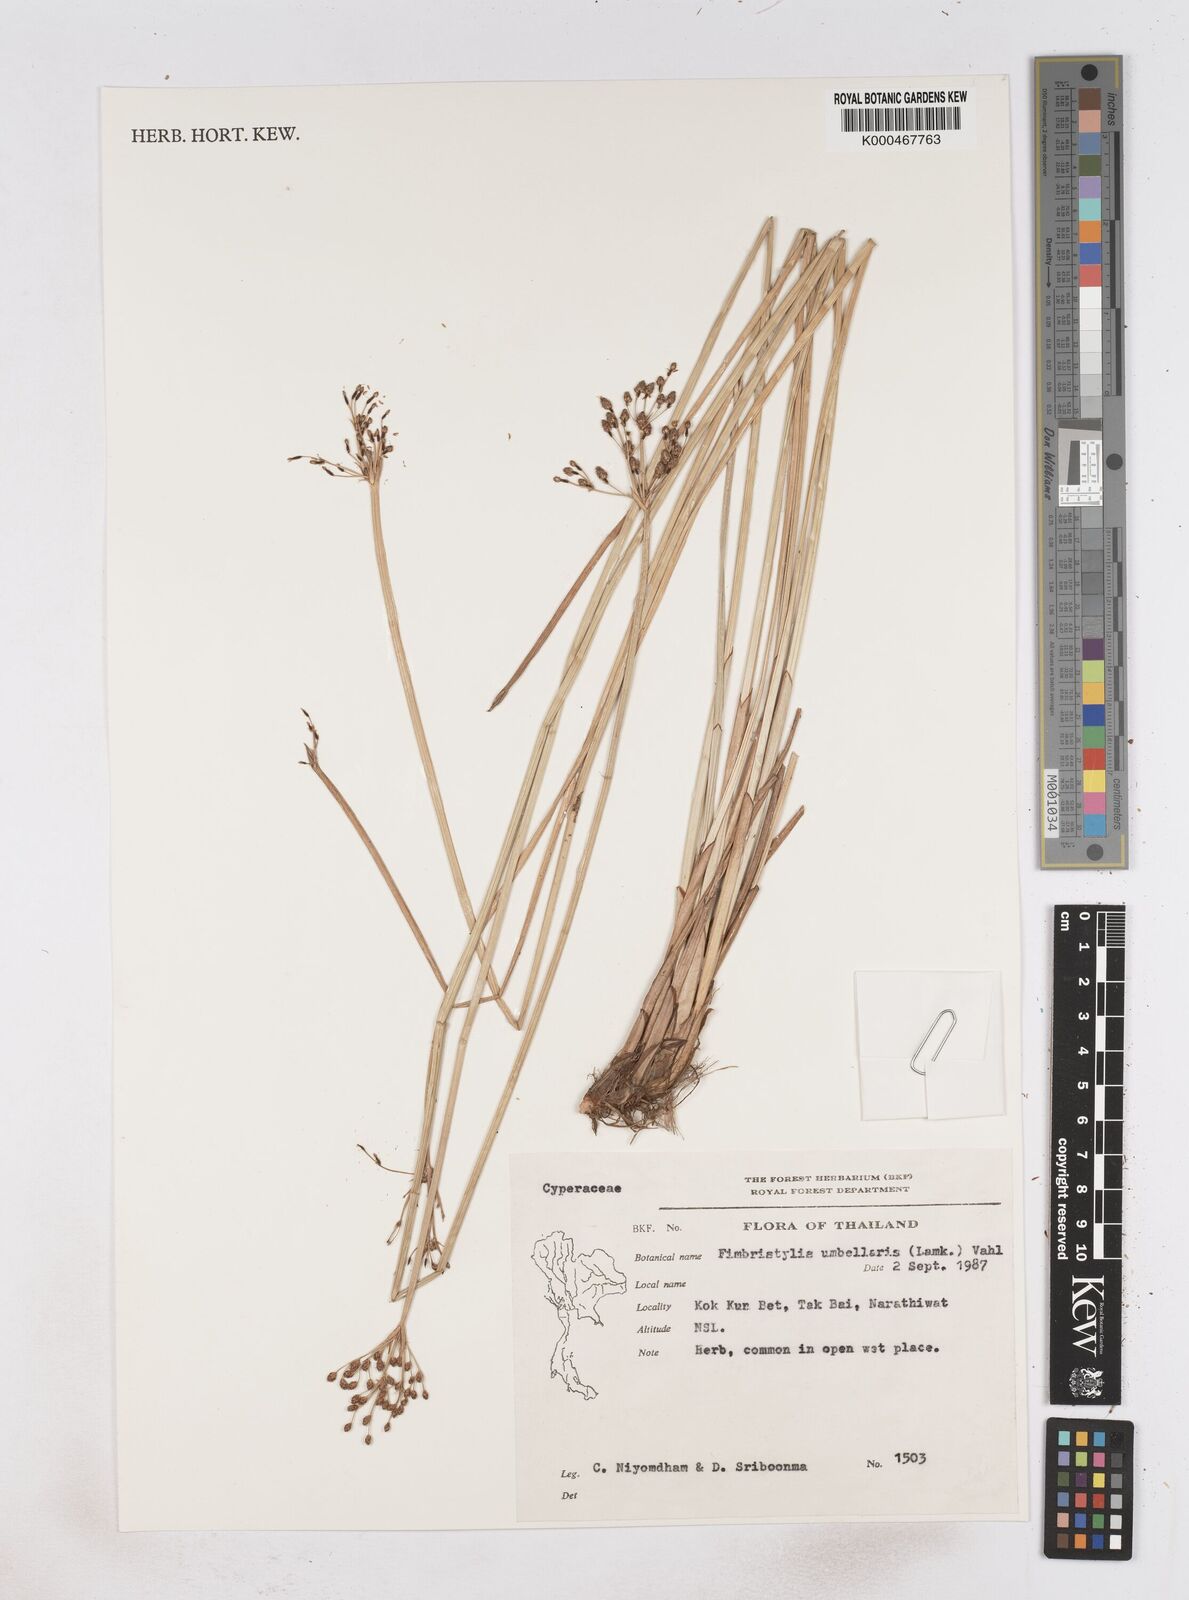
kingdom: Plantae
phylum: Tracheophyta
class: Liliopsida
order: Poales
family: Cyperaceae
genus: Fimbristylis
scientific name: Fimbristylis umbellaris
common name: Globular fimbristylis
